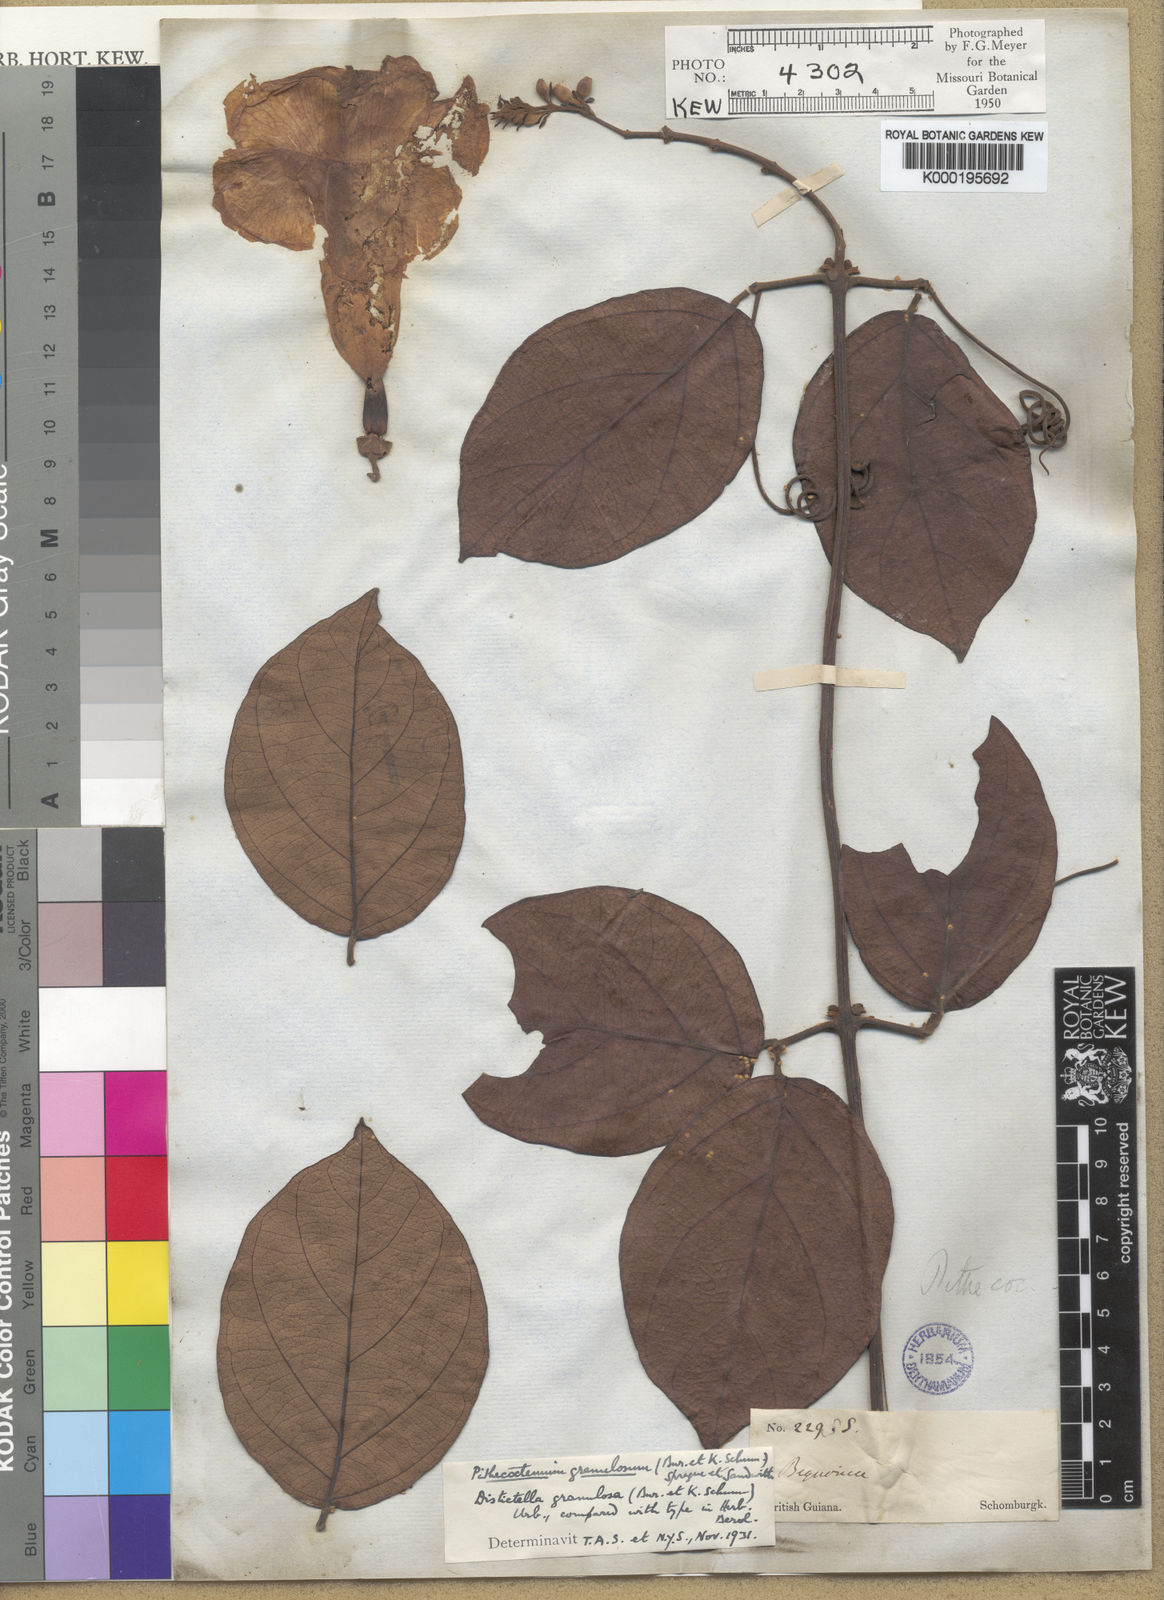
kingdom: Plantae
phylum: Tracheophyta
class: Magnoliopsida
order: Lamiales
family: Bignoniaceae
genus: Pithecoctenium
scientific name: Pithecoctenium
